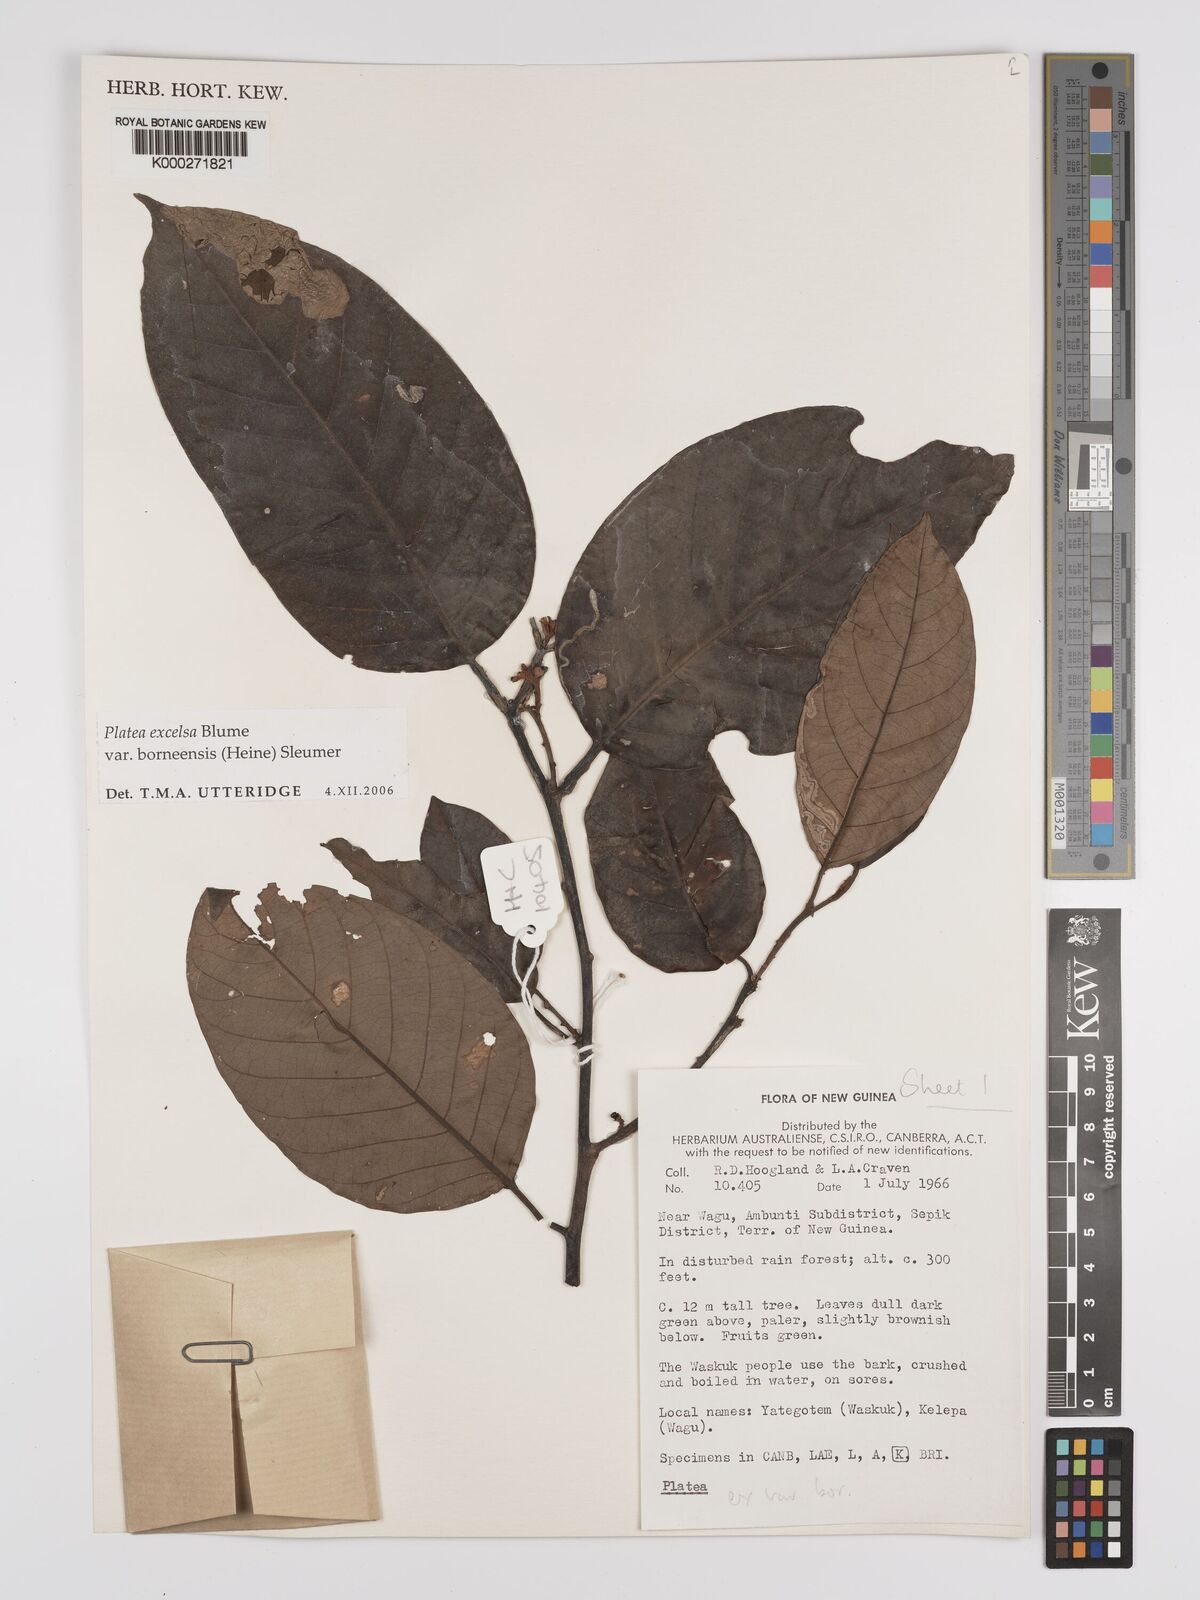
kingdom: Plantae
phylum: Tracheophyta
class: Magnoliopsida
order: Metteniusales
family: Metteniusaceae
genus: Platea
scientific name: Platea excelsa
